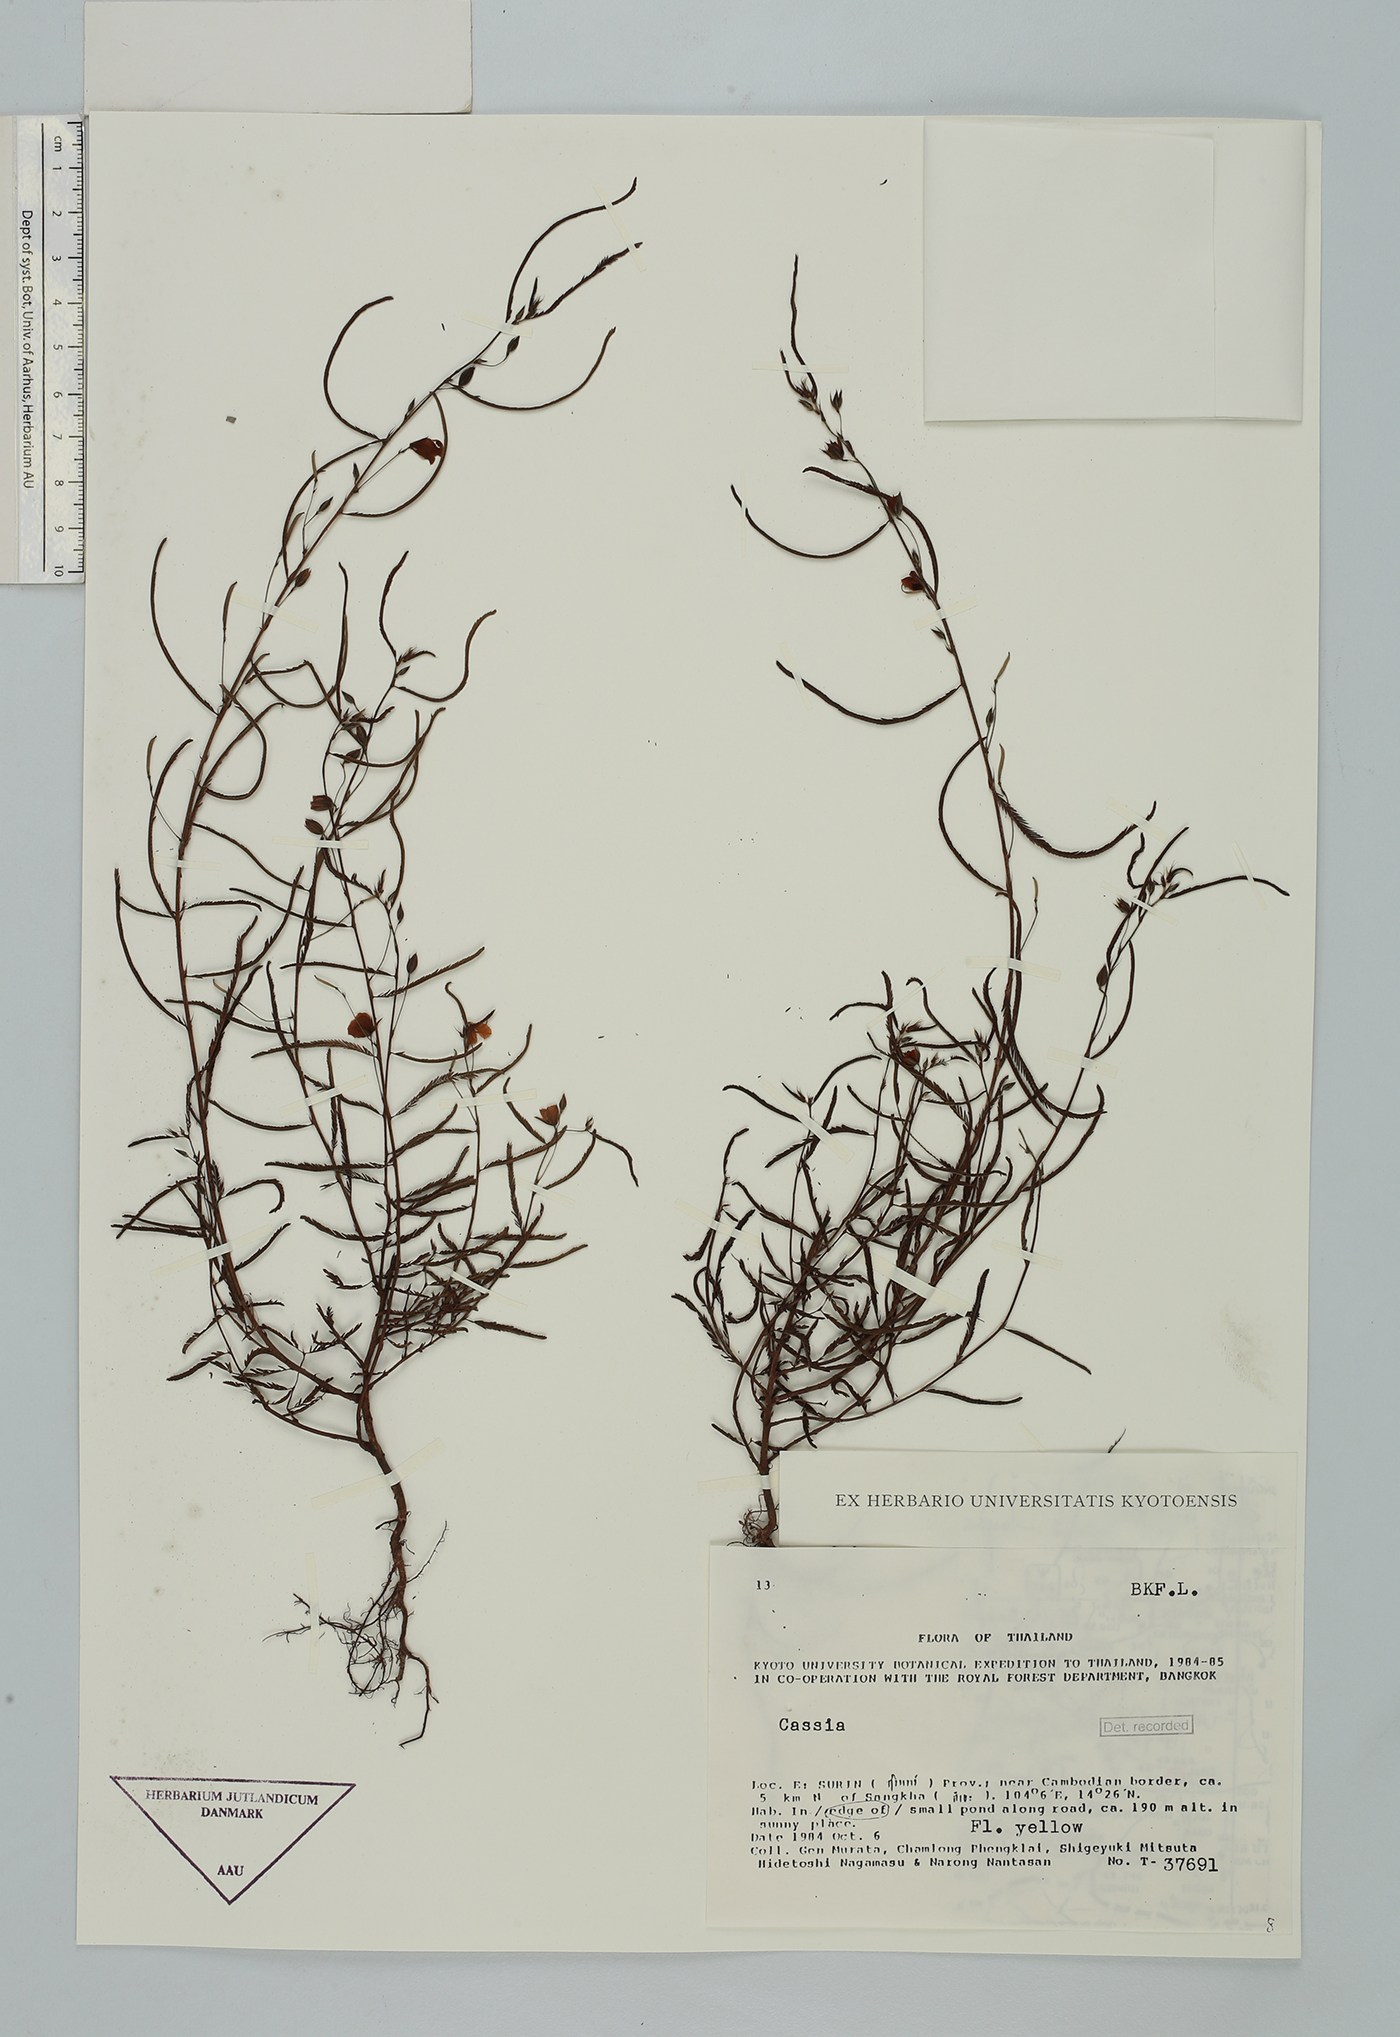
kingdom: Plantae
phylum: Tracheophyta
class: Magnoliopsida
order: Fabales
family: Fabaceae
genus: Chamaecrista
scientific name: Chamaecrista mimosoides
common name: Fish-bone cassia
